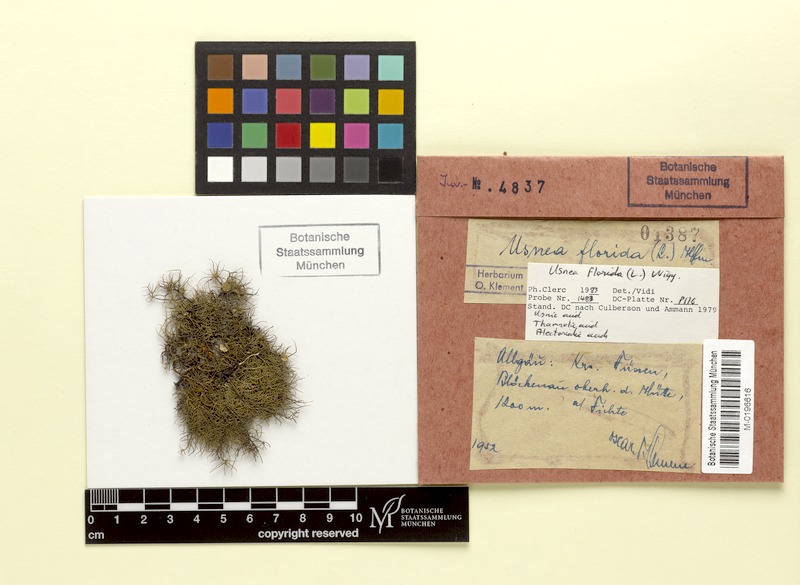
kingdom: Fungi
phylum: Ascomycota
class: Lecanoromycetes
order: Lecanorales
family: Parmeliaceae
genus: Usnea
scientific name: Usnea florida
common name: Witches' whiskers lichen
